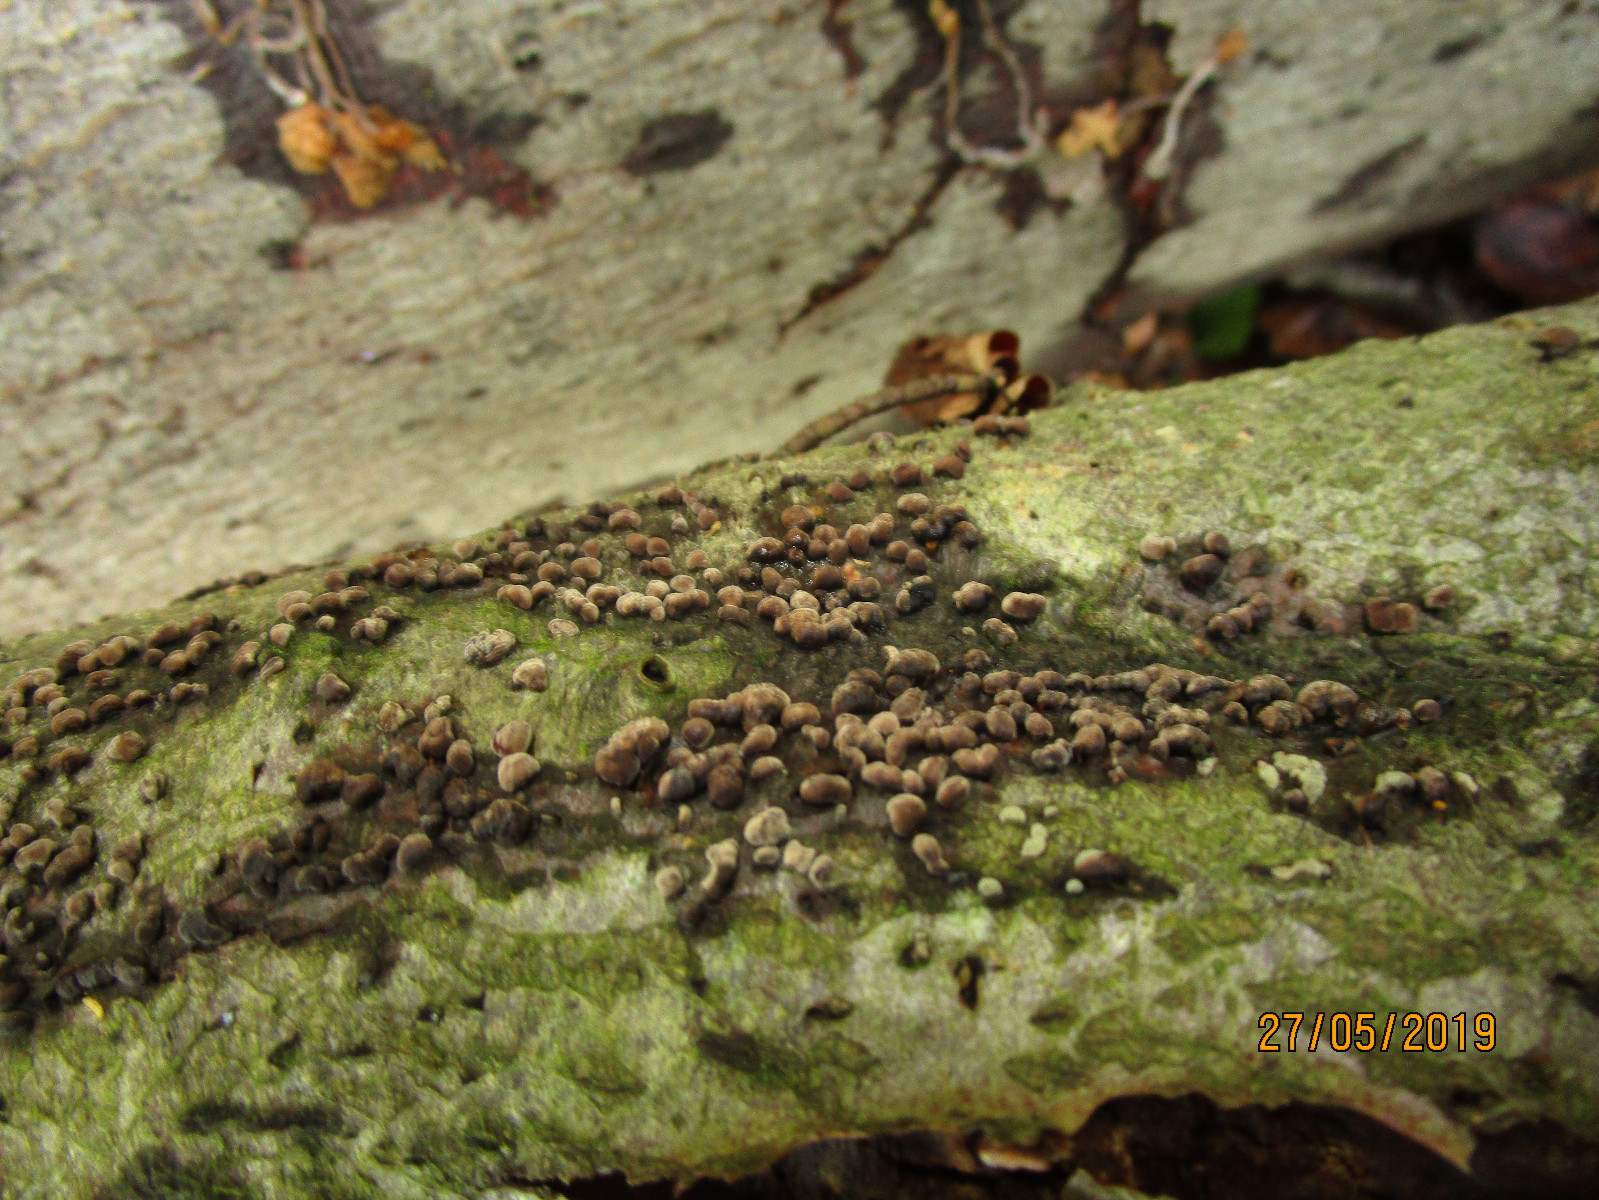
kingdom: Fungi
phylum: Ascomycota
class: Sordariomycetes
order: Xylariales
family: Hypoxylaceae
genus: Hypoxylon
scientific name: Hypoxylon fragiforme
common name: kuljordbær
